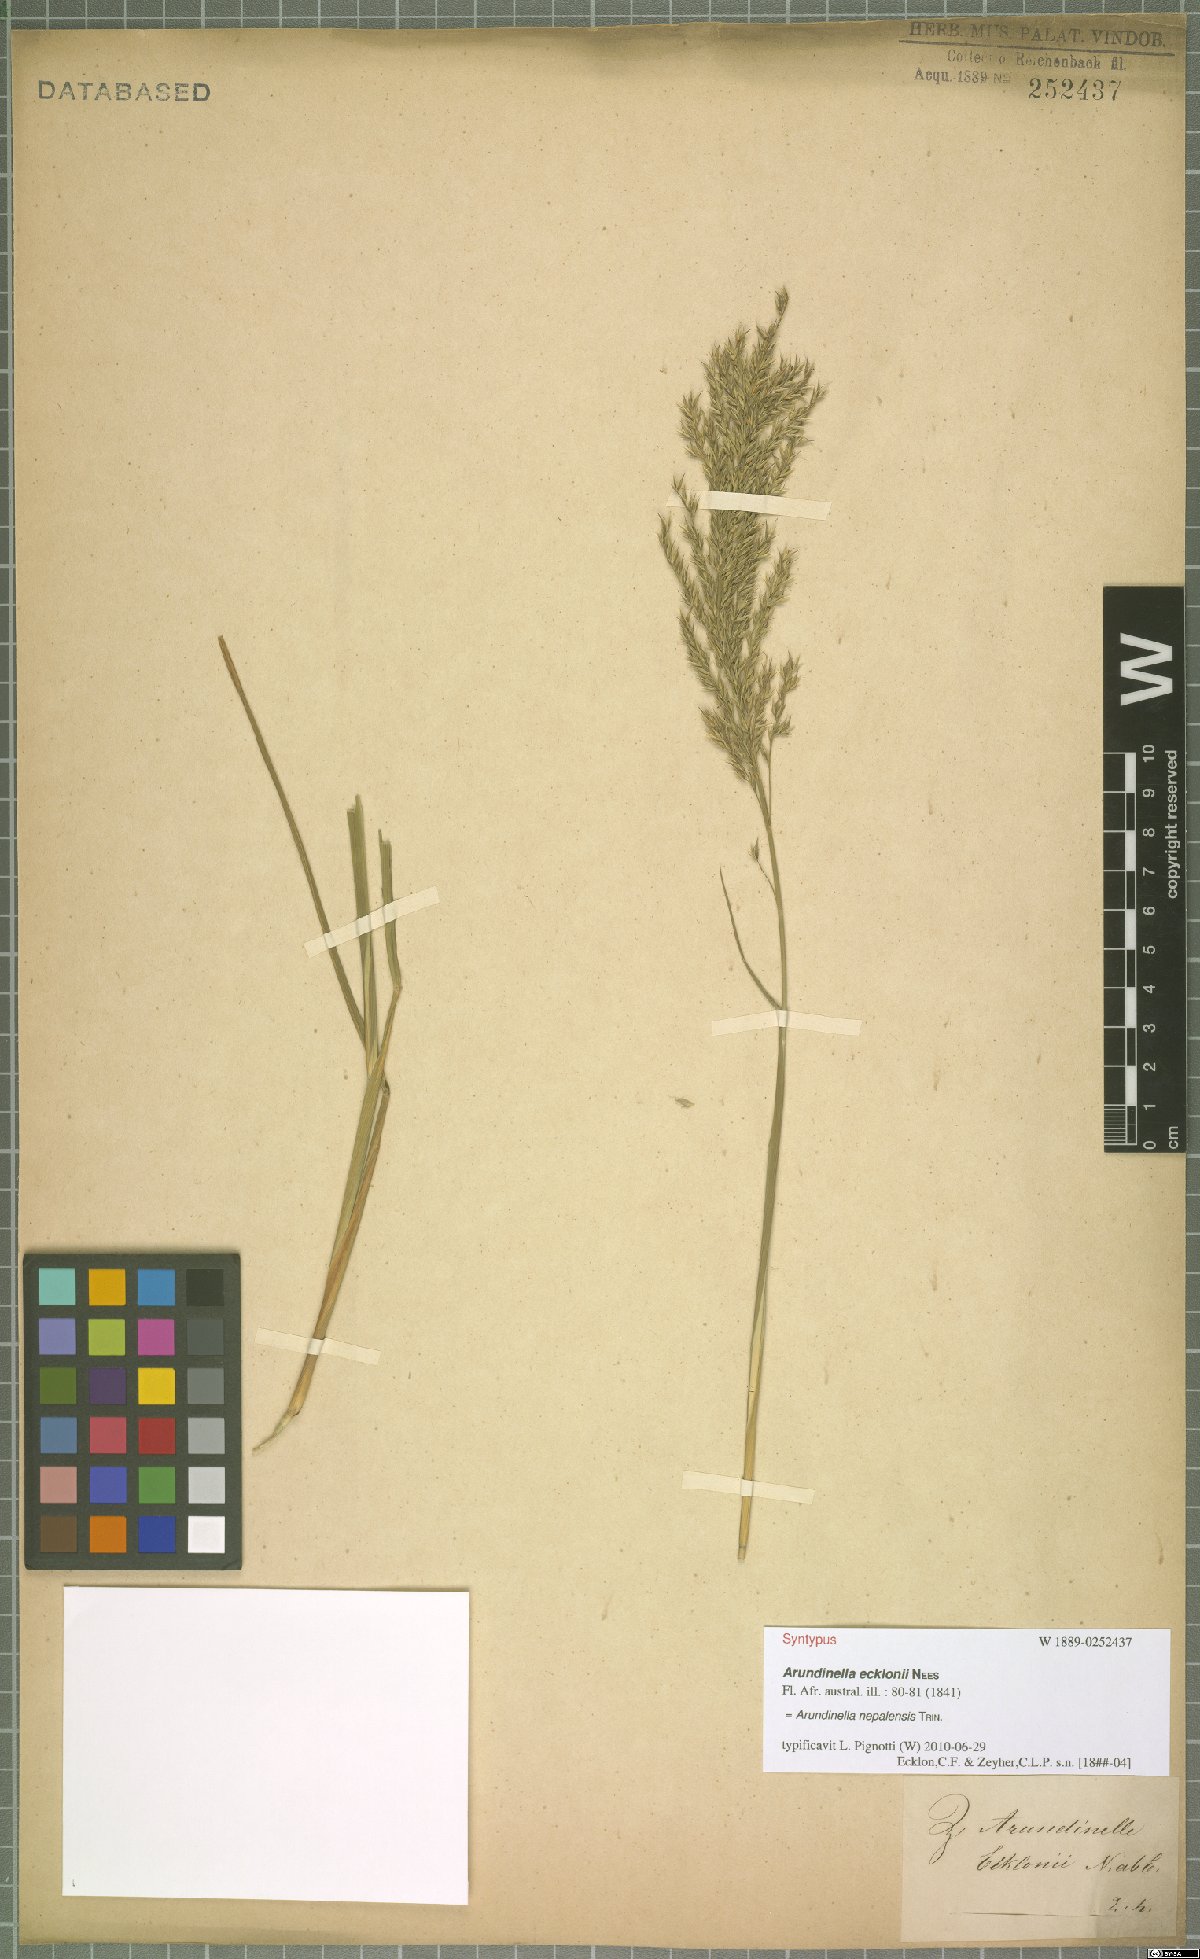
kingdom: Plantae
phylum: Tracheophyta
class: Liliopsida
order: Poales
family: Poaceae
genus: Arundinella
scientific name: Arundinella nepalensis
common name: Reed grass
